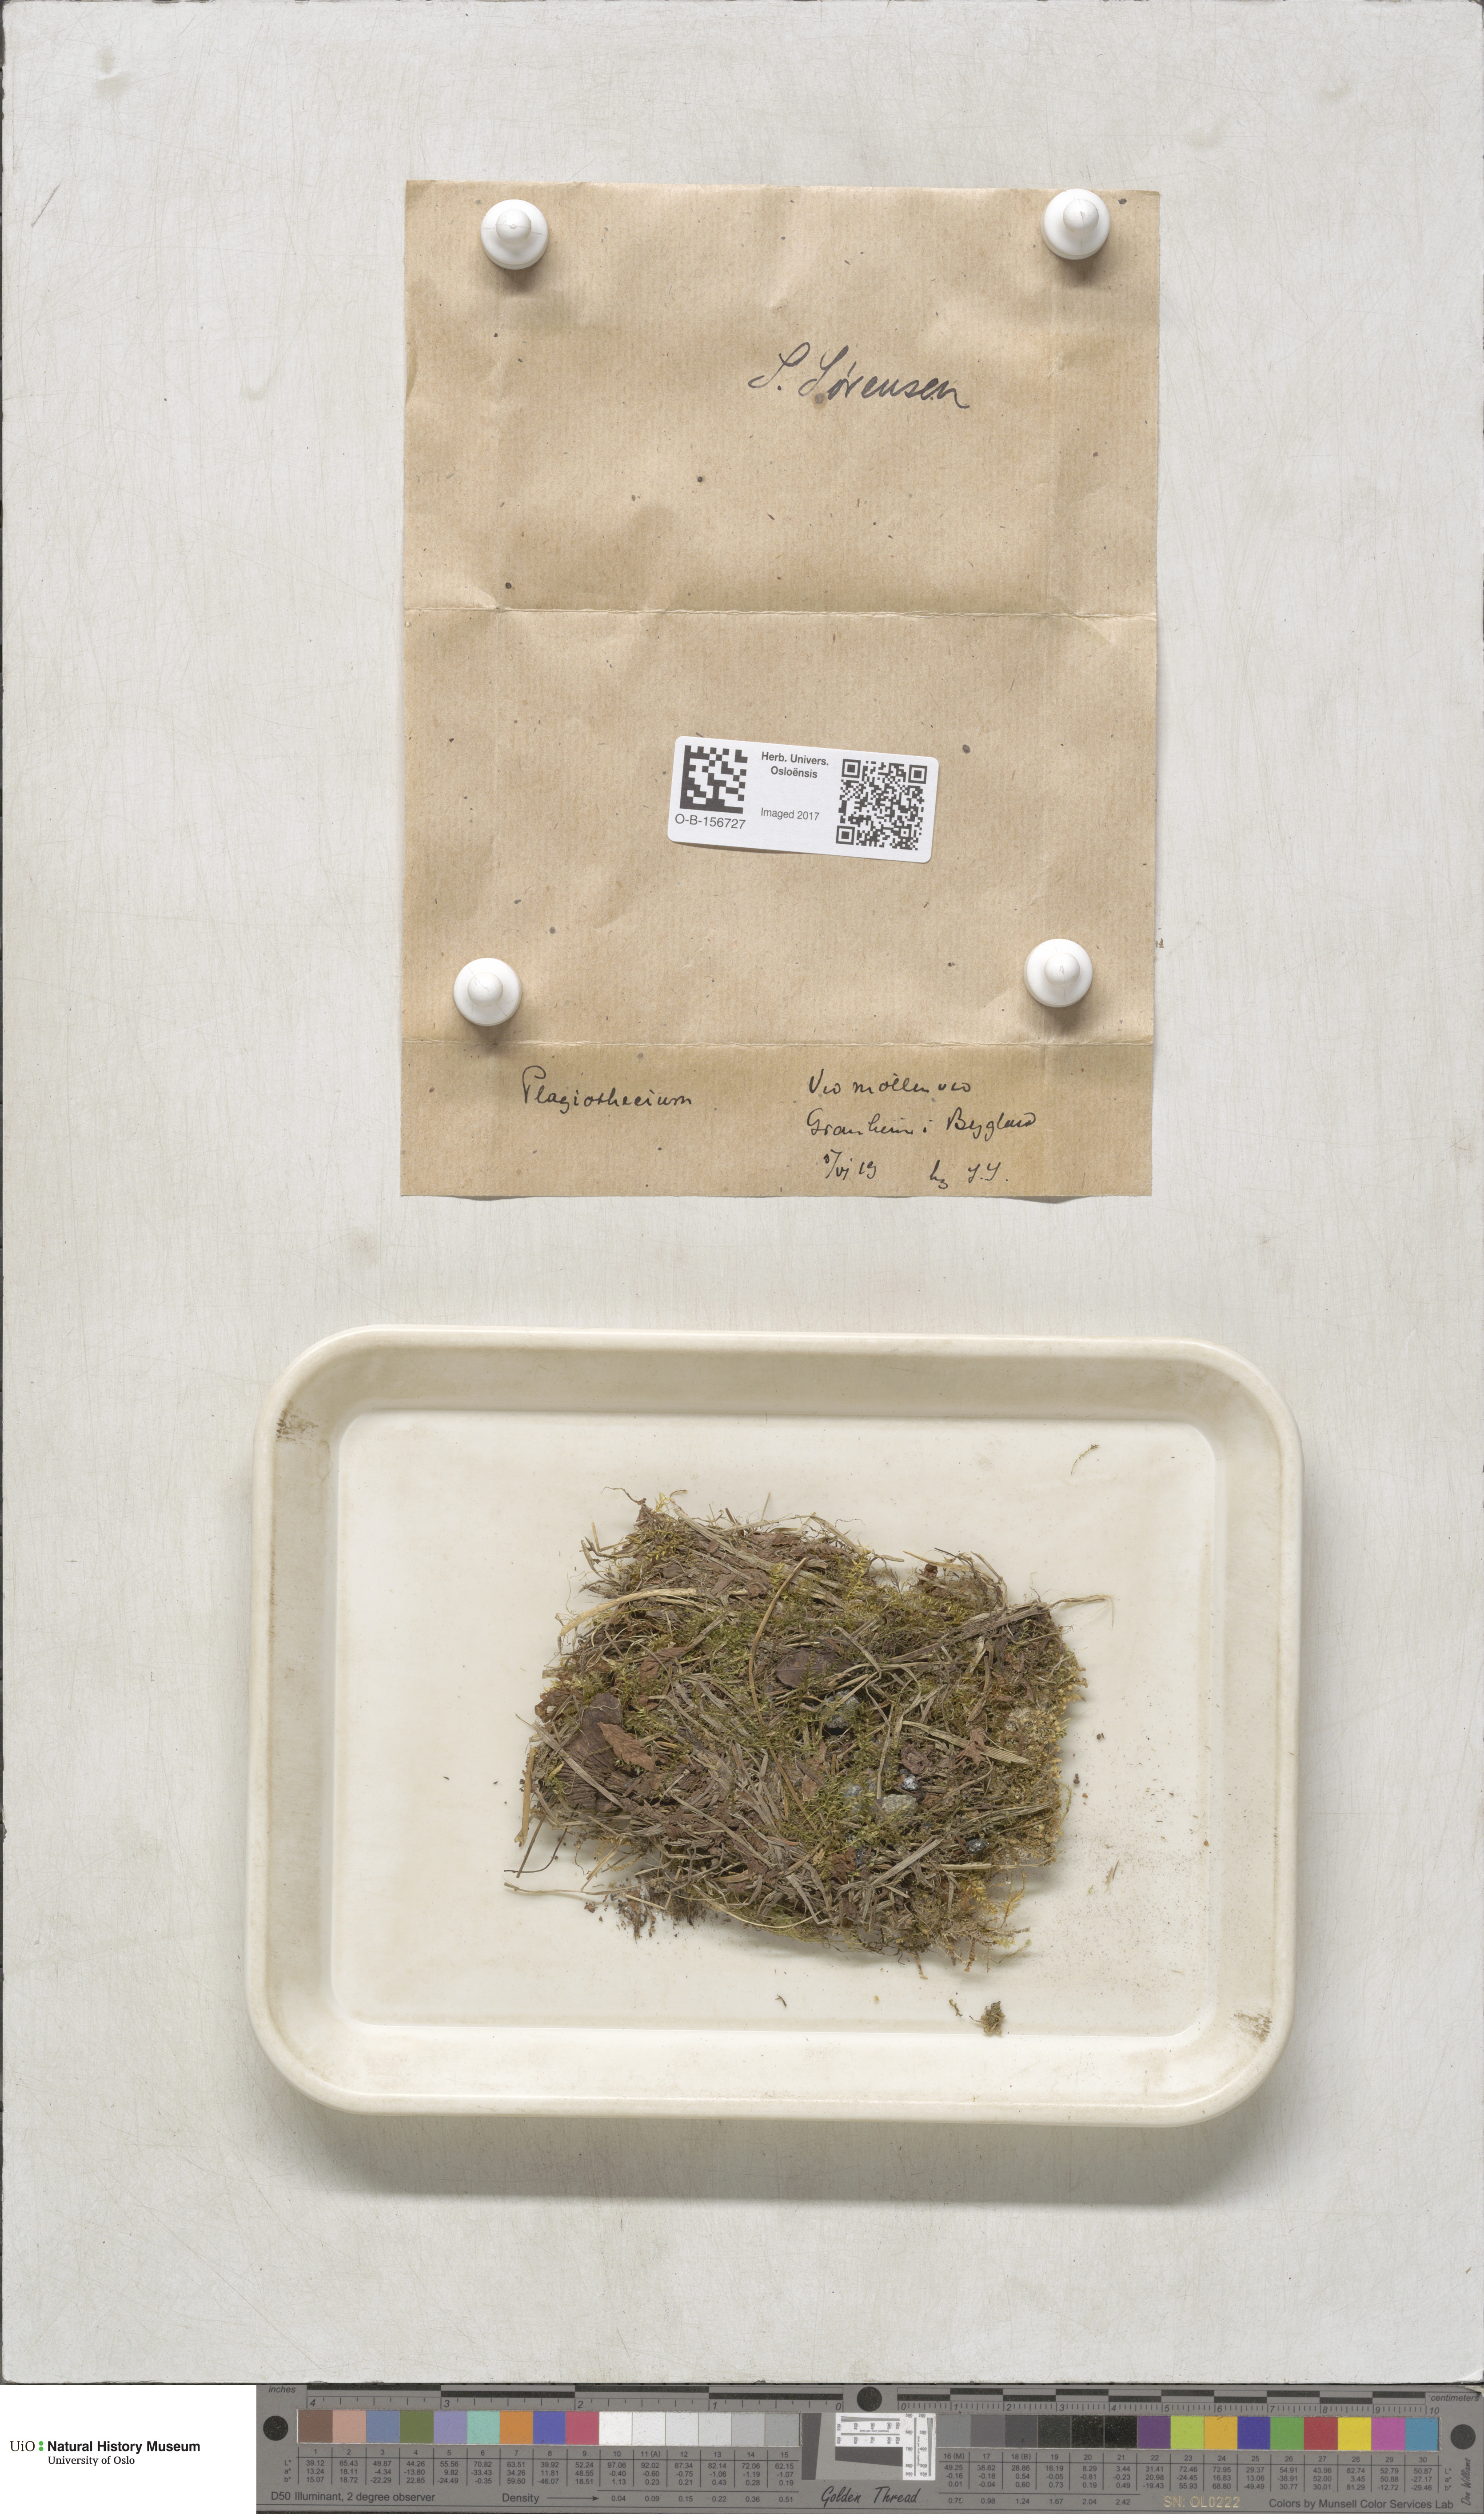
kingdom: Plantae
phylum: Bryophyta
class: Bryopsida
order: Hypnales
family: Plagiotheciaceae
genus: Plagiothecium
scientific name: Plagiothecium
